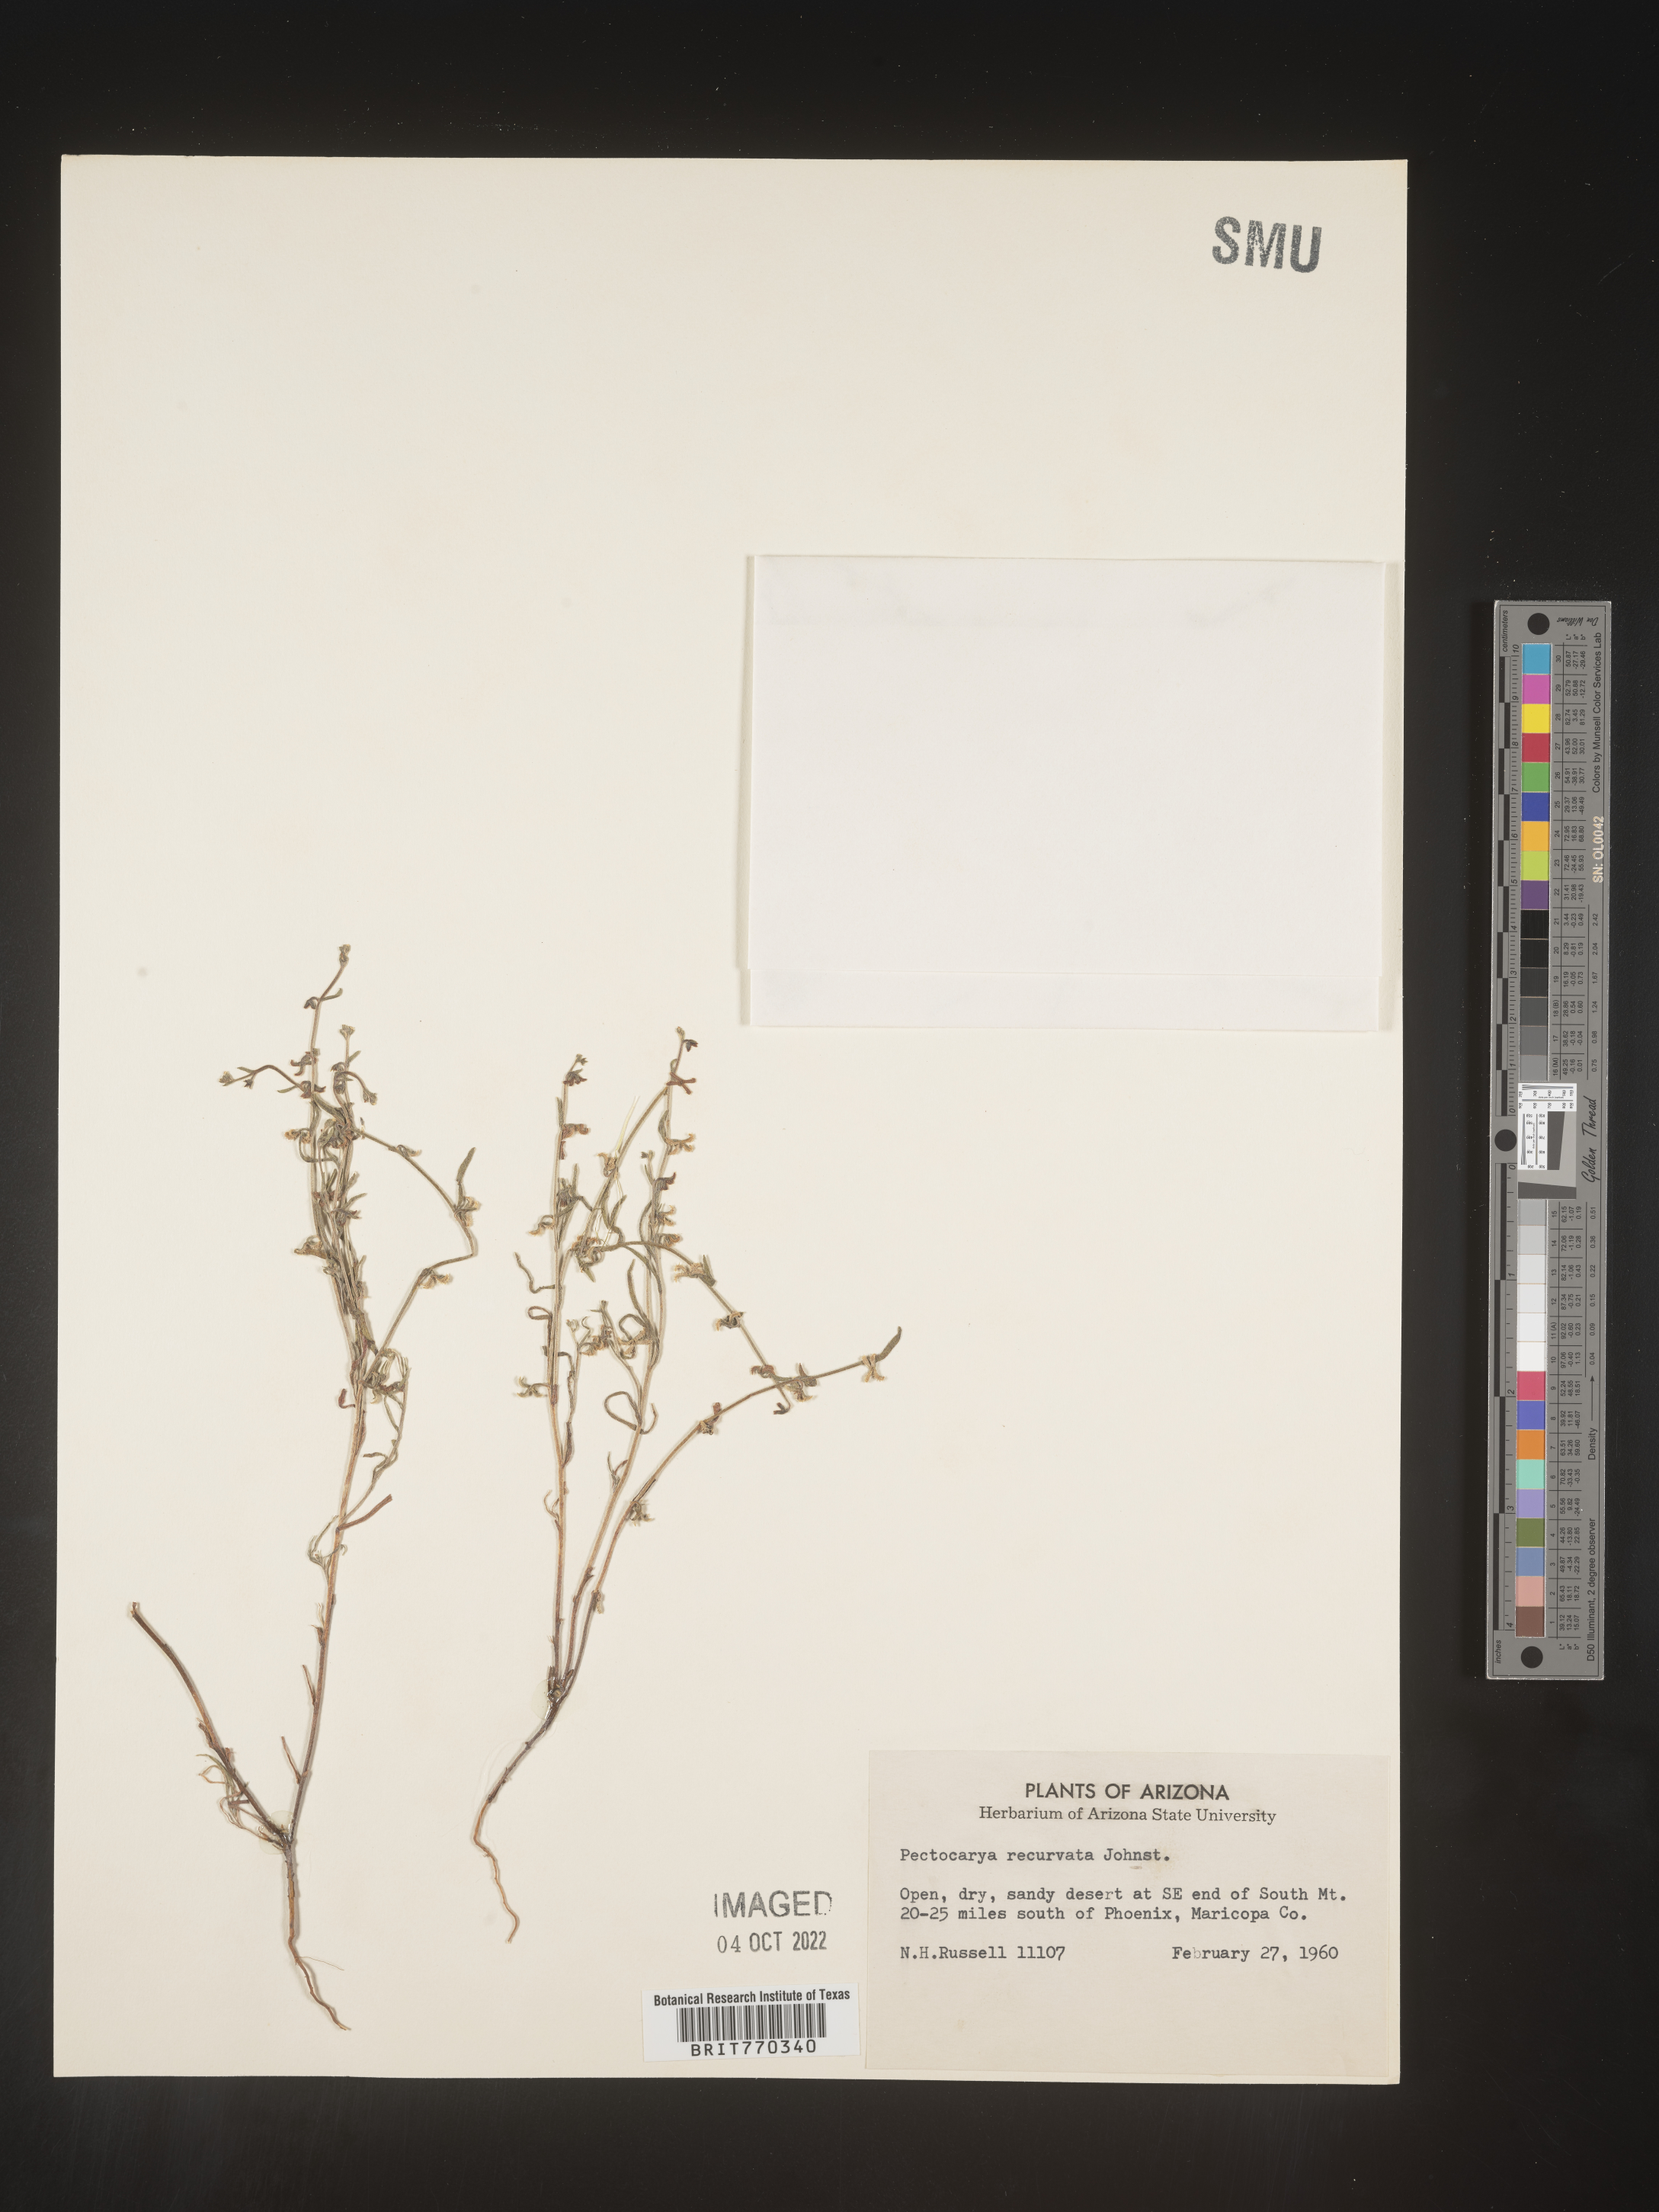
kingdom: Plantae
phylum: Tracheophyta
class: Magnoliopsida
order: Boraginales
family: Boraginaceae
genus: Pectocarya
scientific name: Pectocarya
